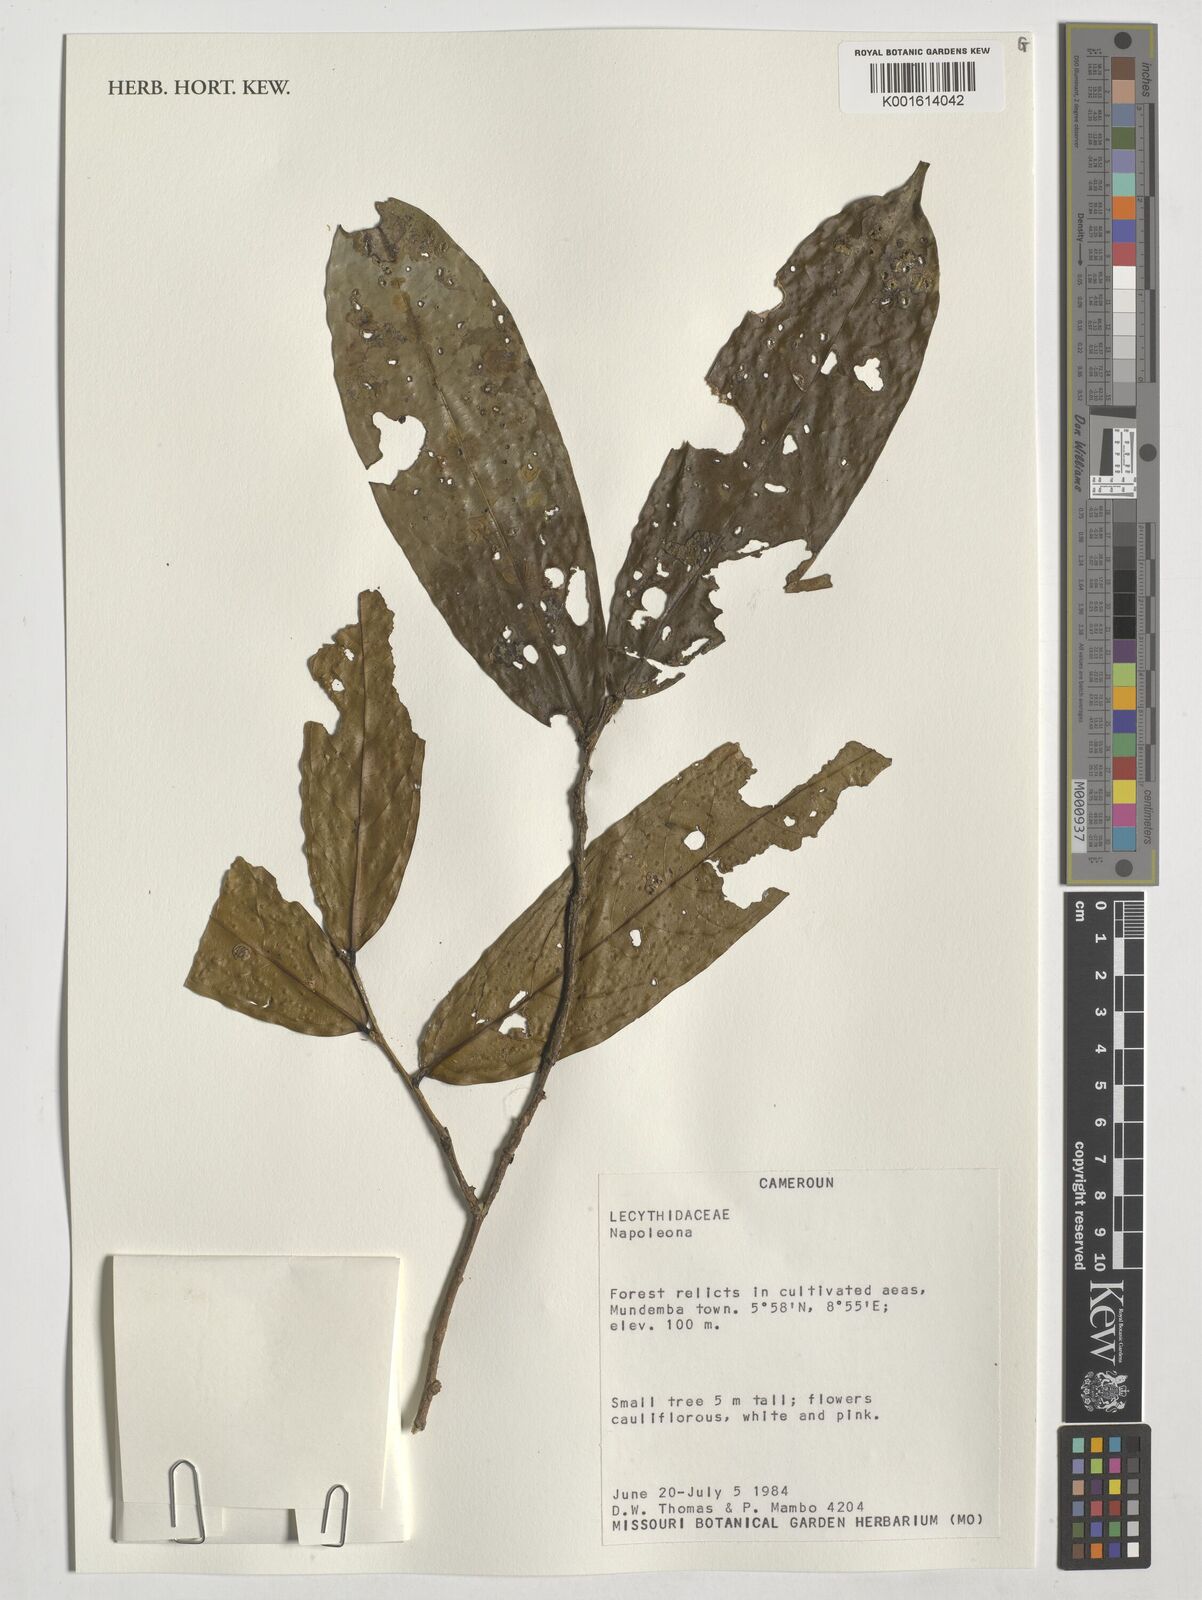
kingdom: Plantae
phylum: Tracheophyta
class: Magnoliopsida
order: Ericales
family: Lecythidaceae
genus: Napoleonaea
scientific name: Napoleonaea
